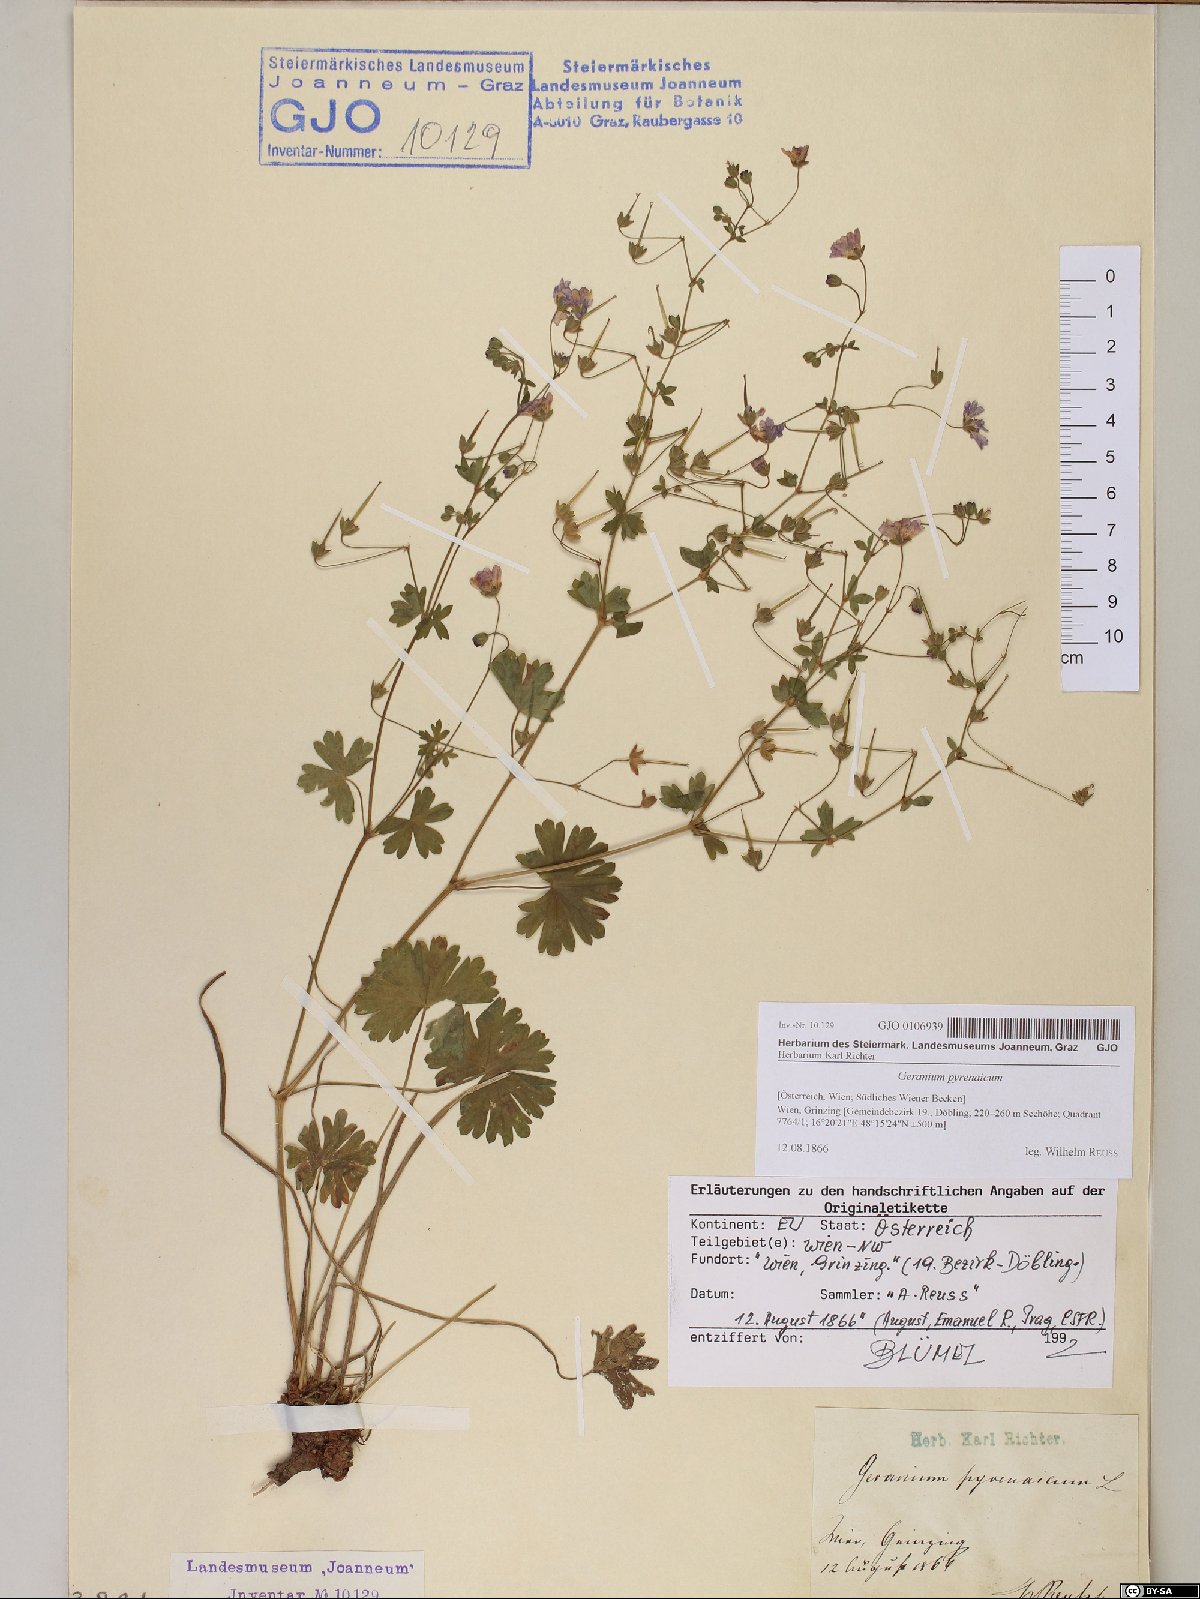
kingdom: Plantae
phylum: Tracheophyta
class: Magnoliopsida
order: Geraniales
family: Geraniaceae
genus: Geranium
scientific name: Geranium pyrenaicum
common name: Hedgerow crane's-bill
